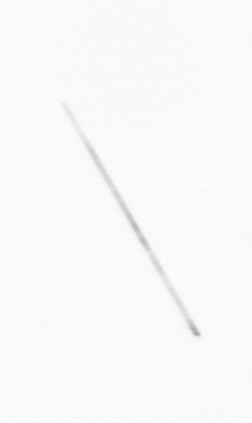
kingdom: Chromista
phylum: Ochrophyta
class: Bacillariophyceae
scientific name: Bacillariophyceae
